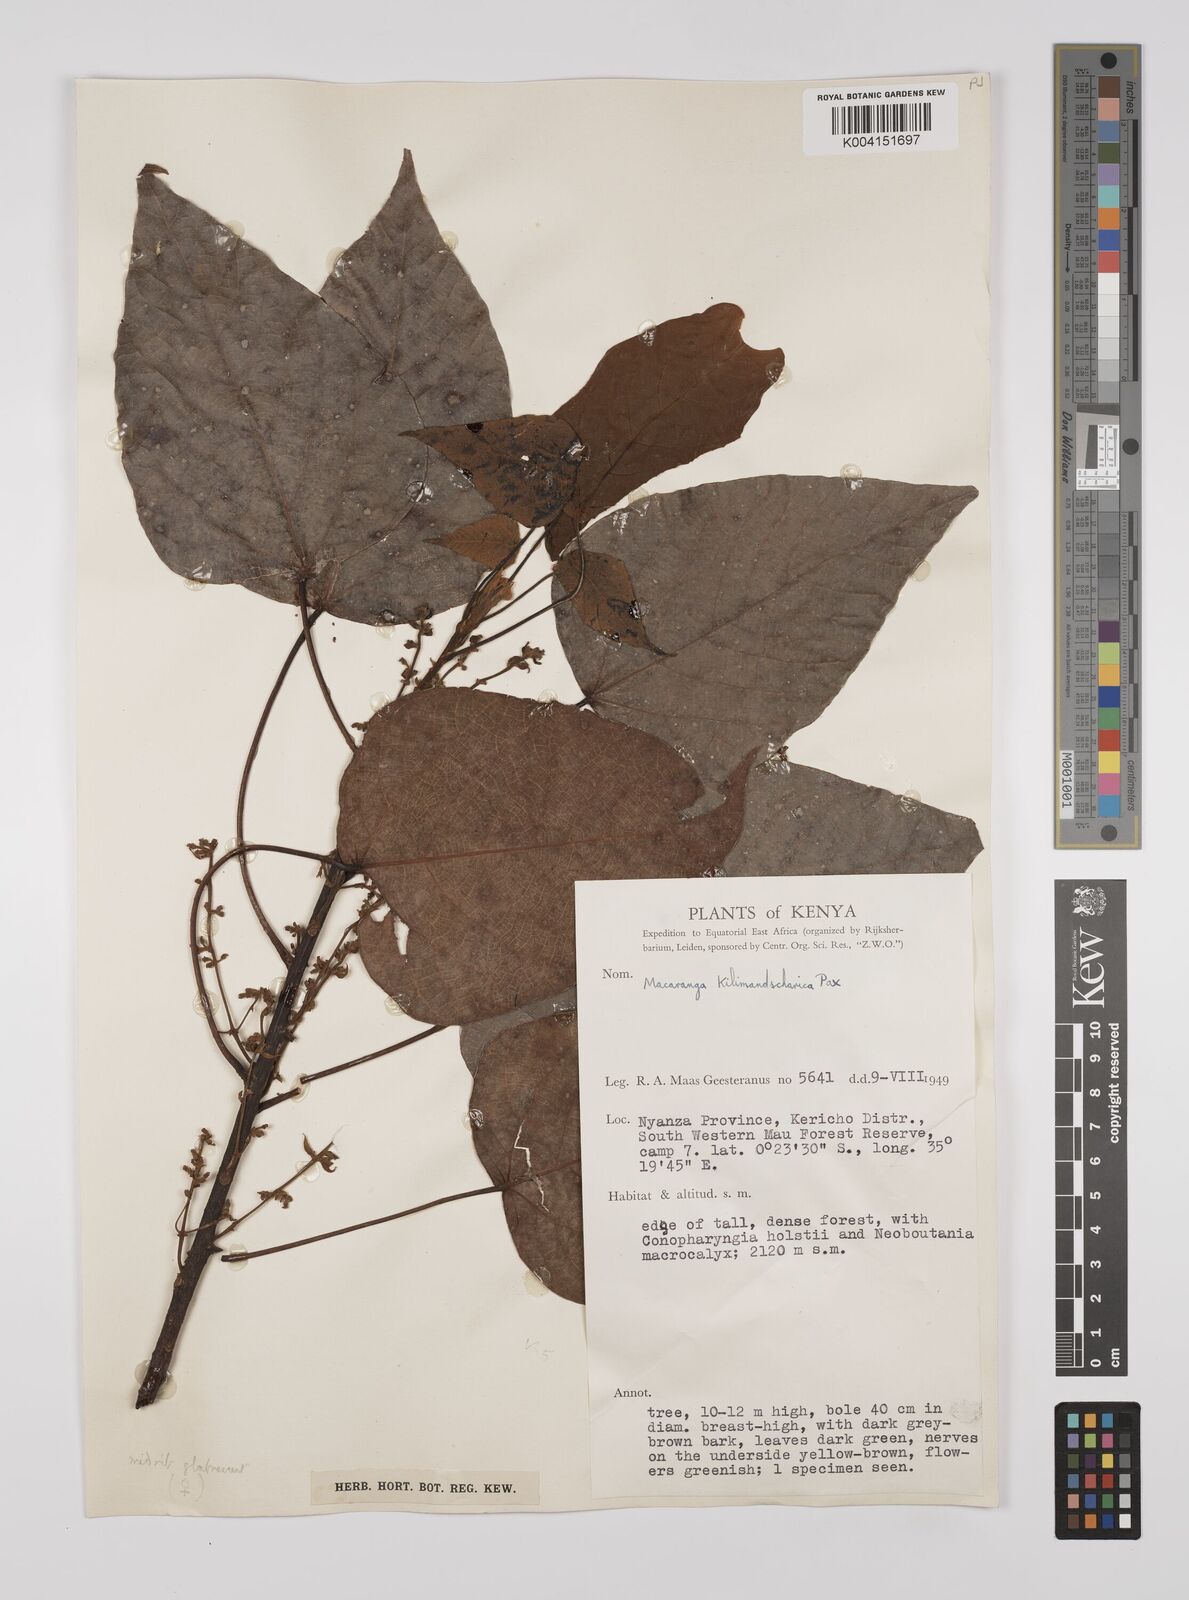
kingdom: Plantae
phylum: Tracheophyta
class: Magnoliopsida
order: Malpighiales
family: Euphorbiaceae
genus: Macaranga
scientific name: Macaranga kilimandscharica
